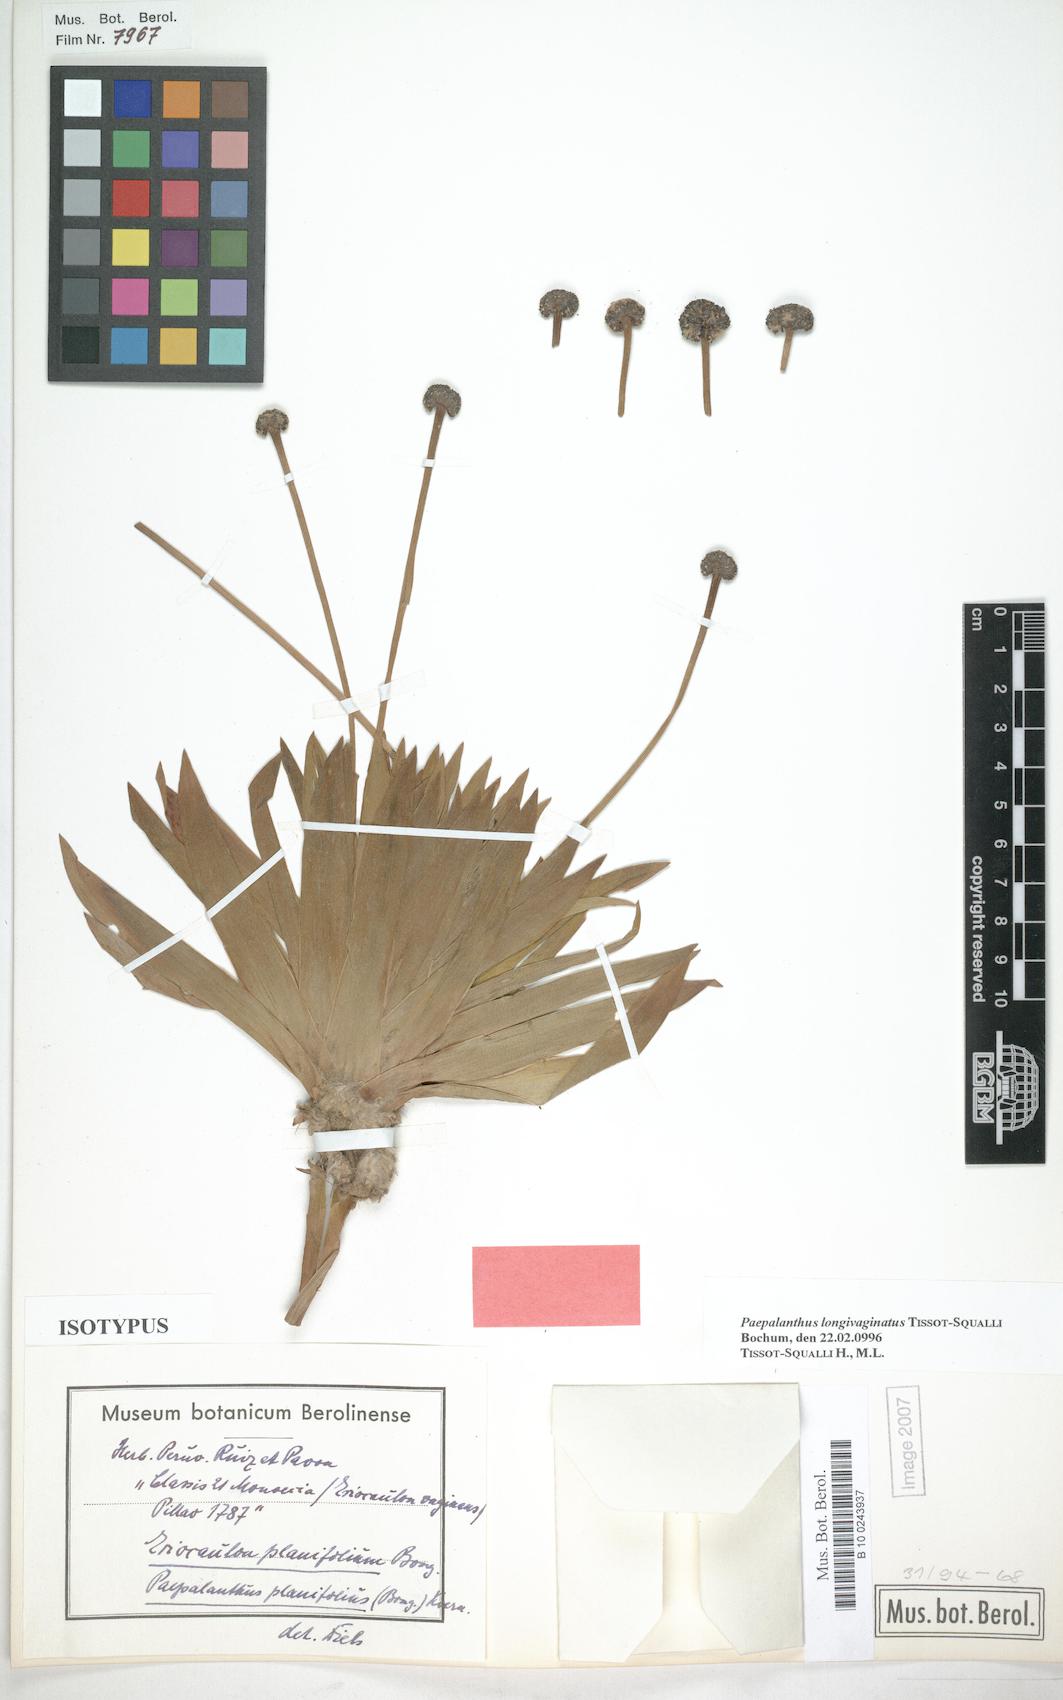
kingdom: Plantae
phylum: Tracheophyta
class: Liliopsida
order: Poales
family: Eriocaulaceae
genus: Paepalanthus
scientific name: Paepalanthus longivaginatus
